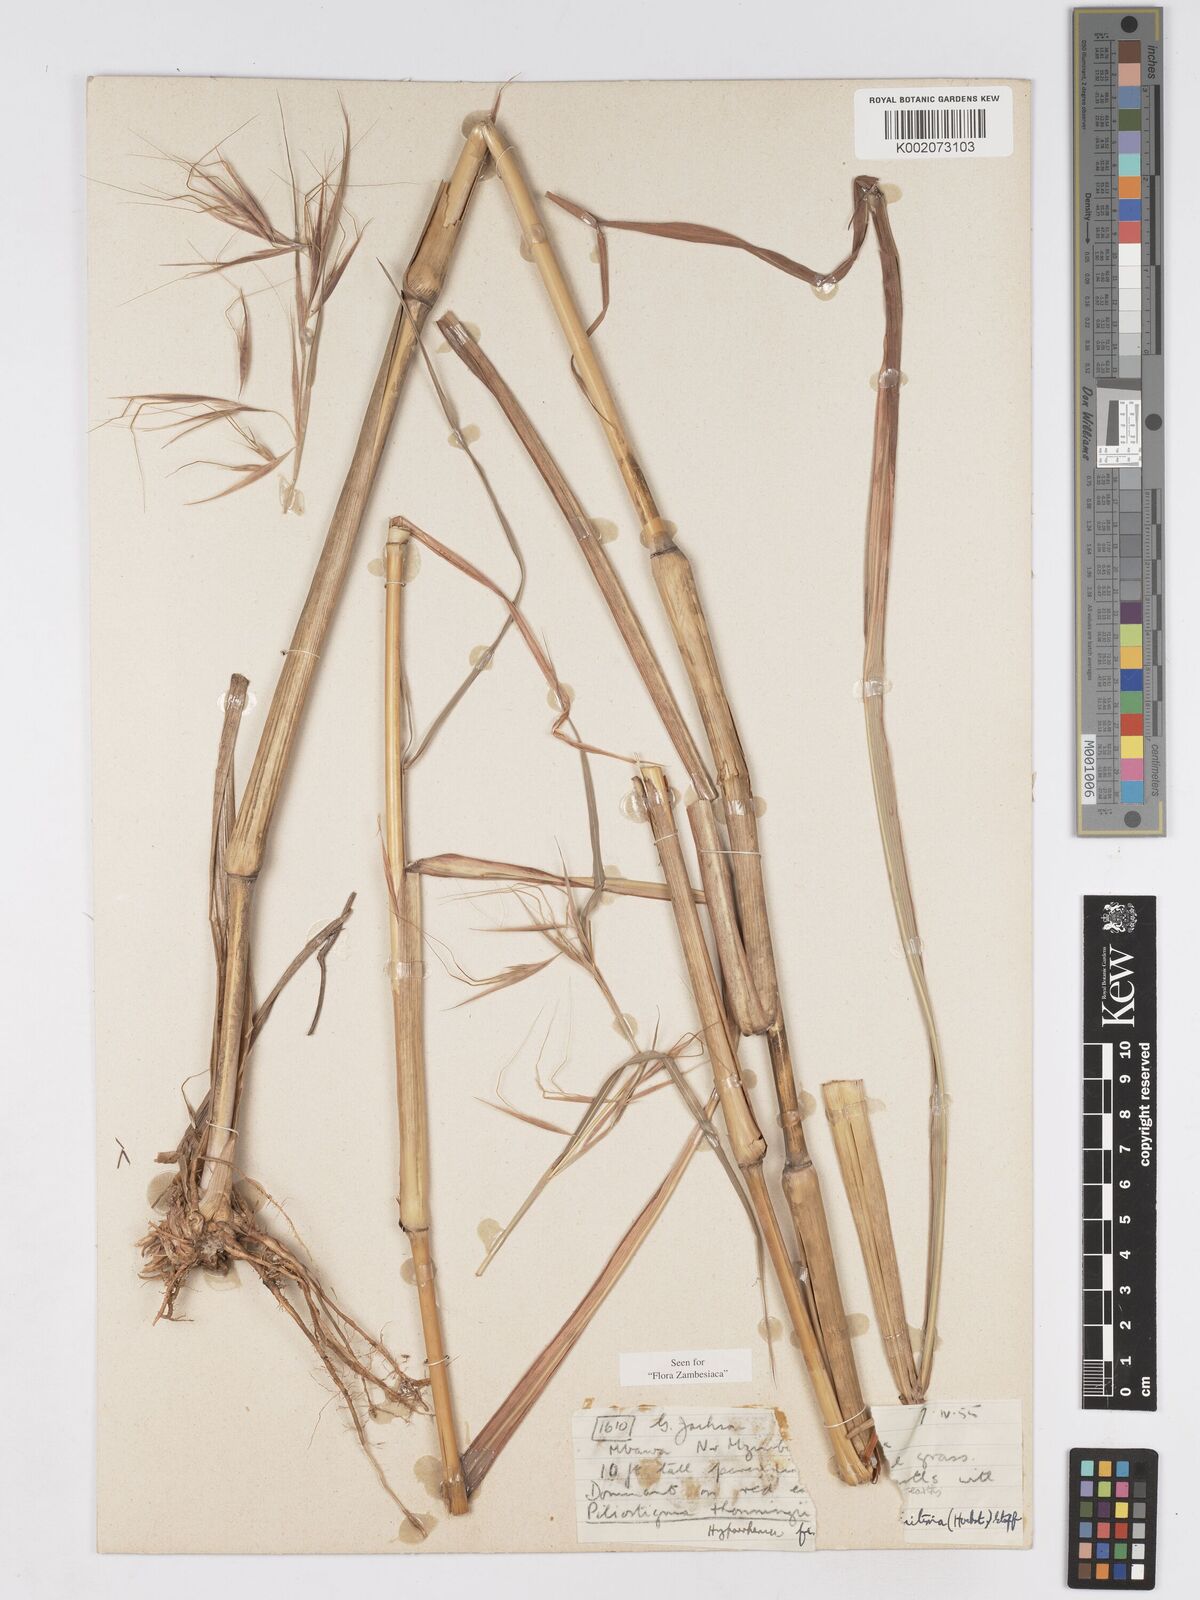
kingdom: Plantae
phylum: Tracheophyta
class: Liliopsida
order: Poales
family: Poaceae
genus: Hyparrhenia
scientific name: Hyparrhenia finitima
